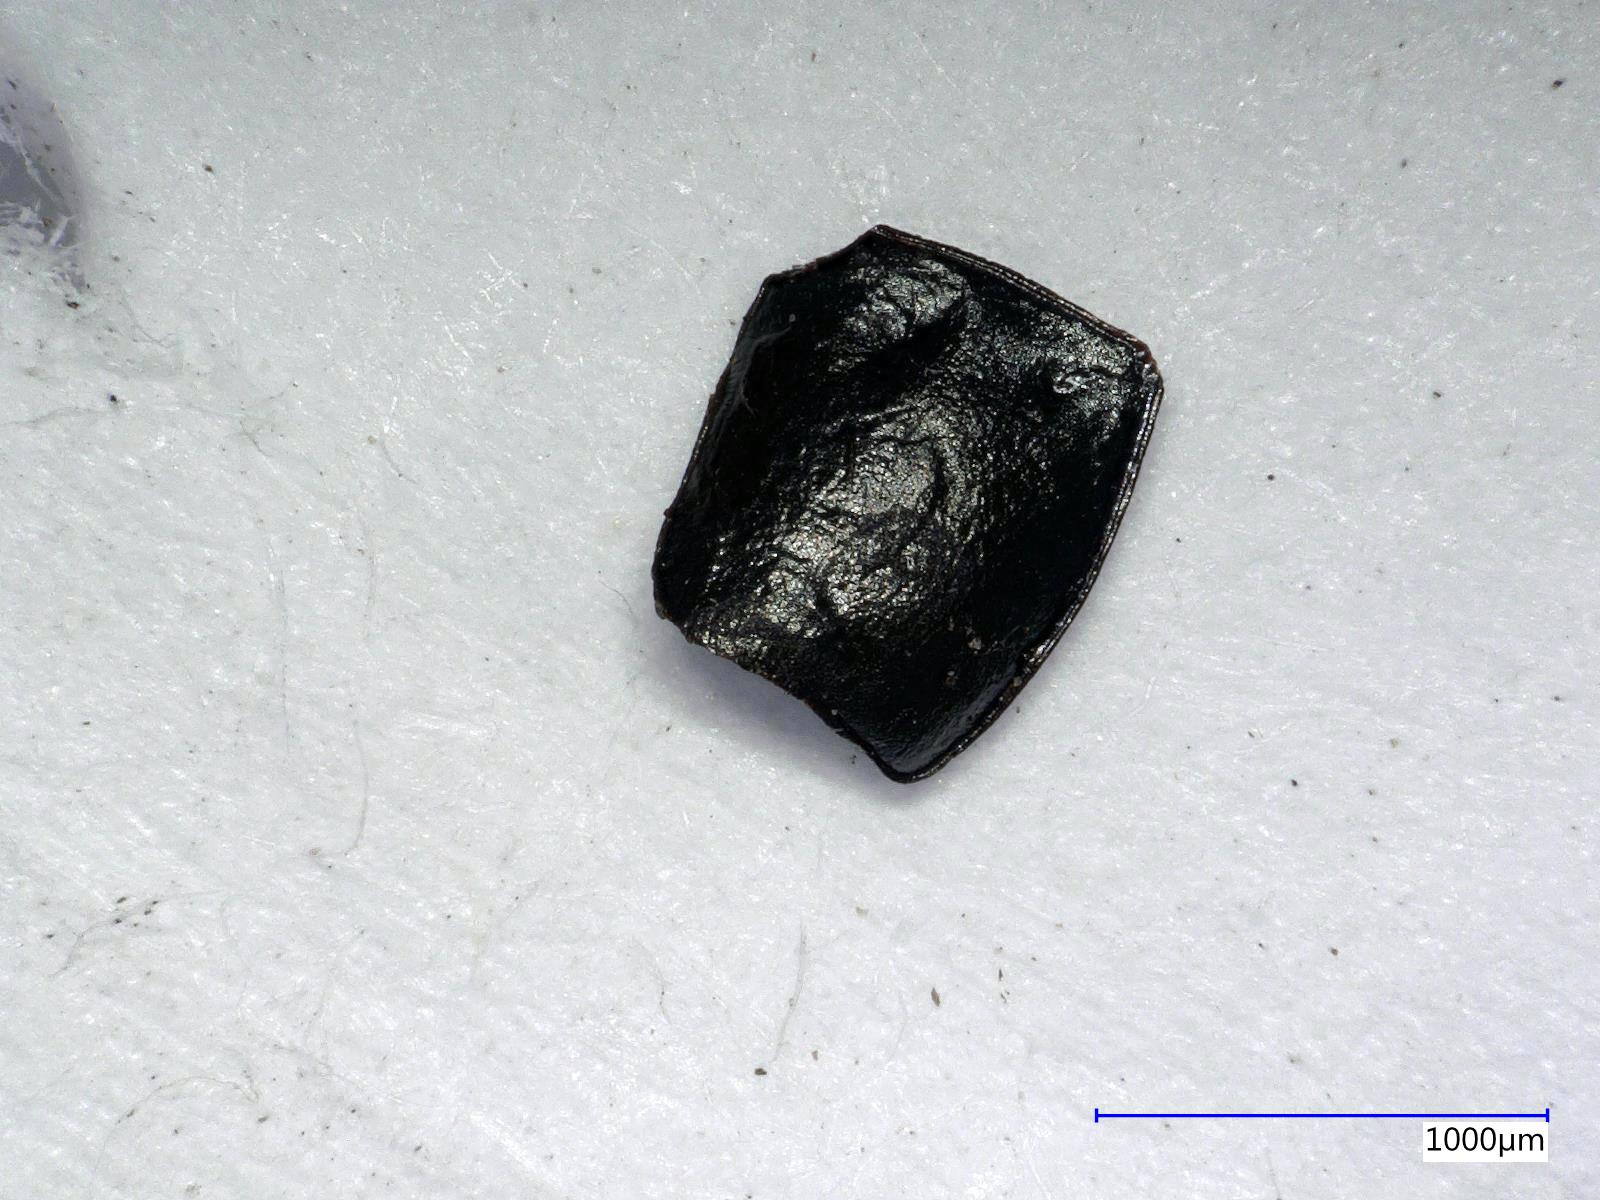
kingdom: Animalia
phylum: Arthropoda
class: Insecta
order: Coleoptera
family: Carabidae
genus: Dicheirus
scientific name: Dicheirus
